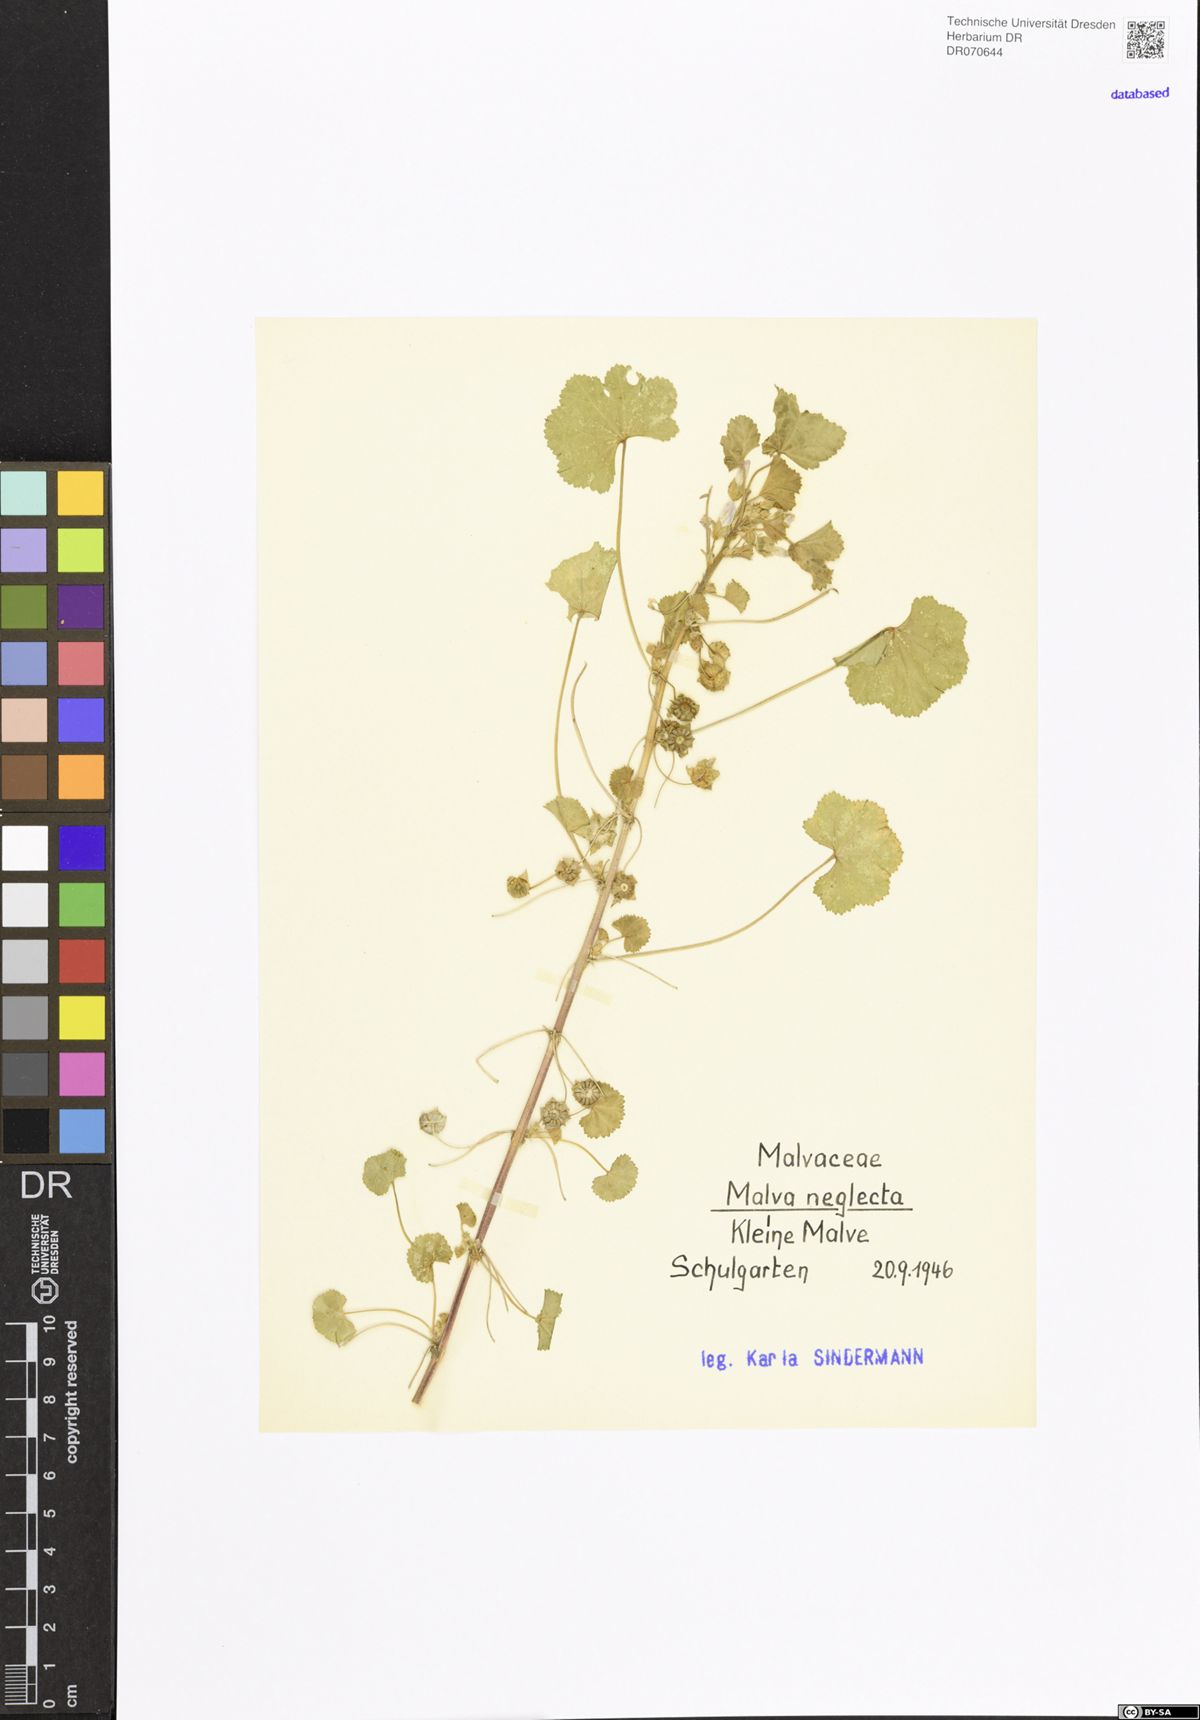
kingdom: Plantae
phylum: Tracheophyta
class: Magnoliopsida
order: Malvales
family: Malvaceae
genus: Malva
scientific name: Malva neglecta
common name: Common mallow
